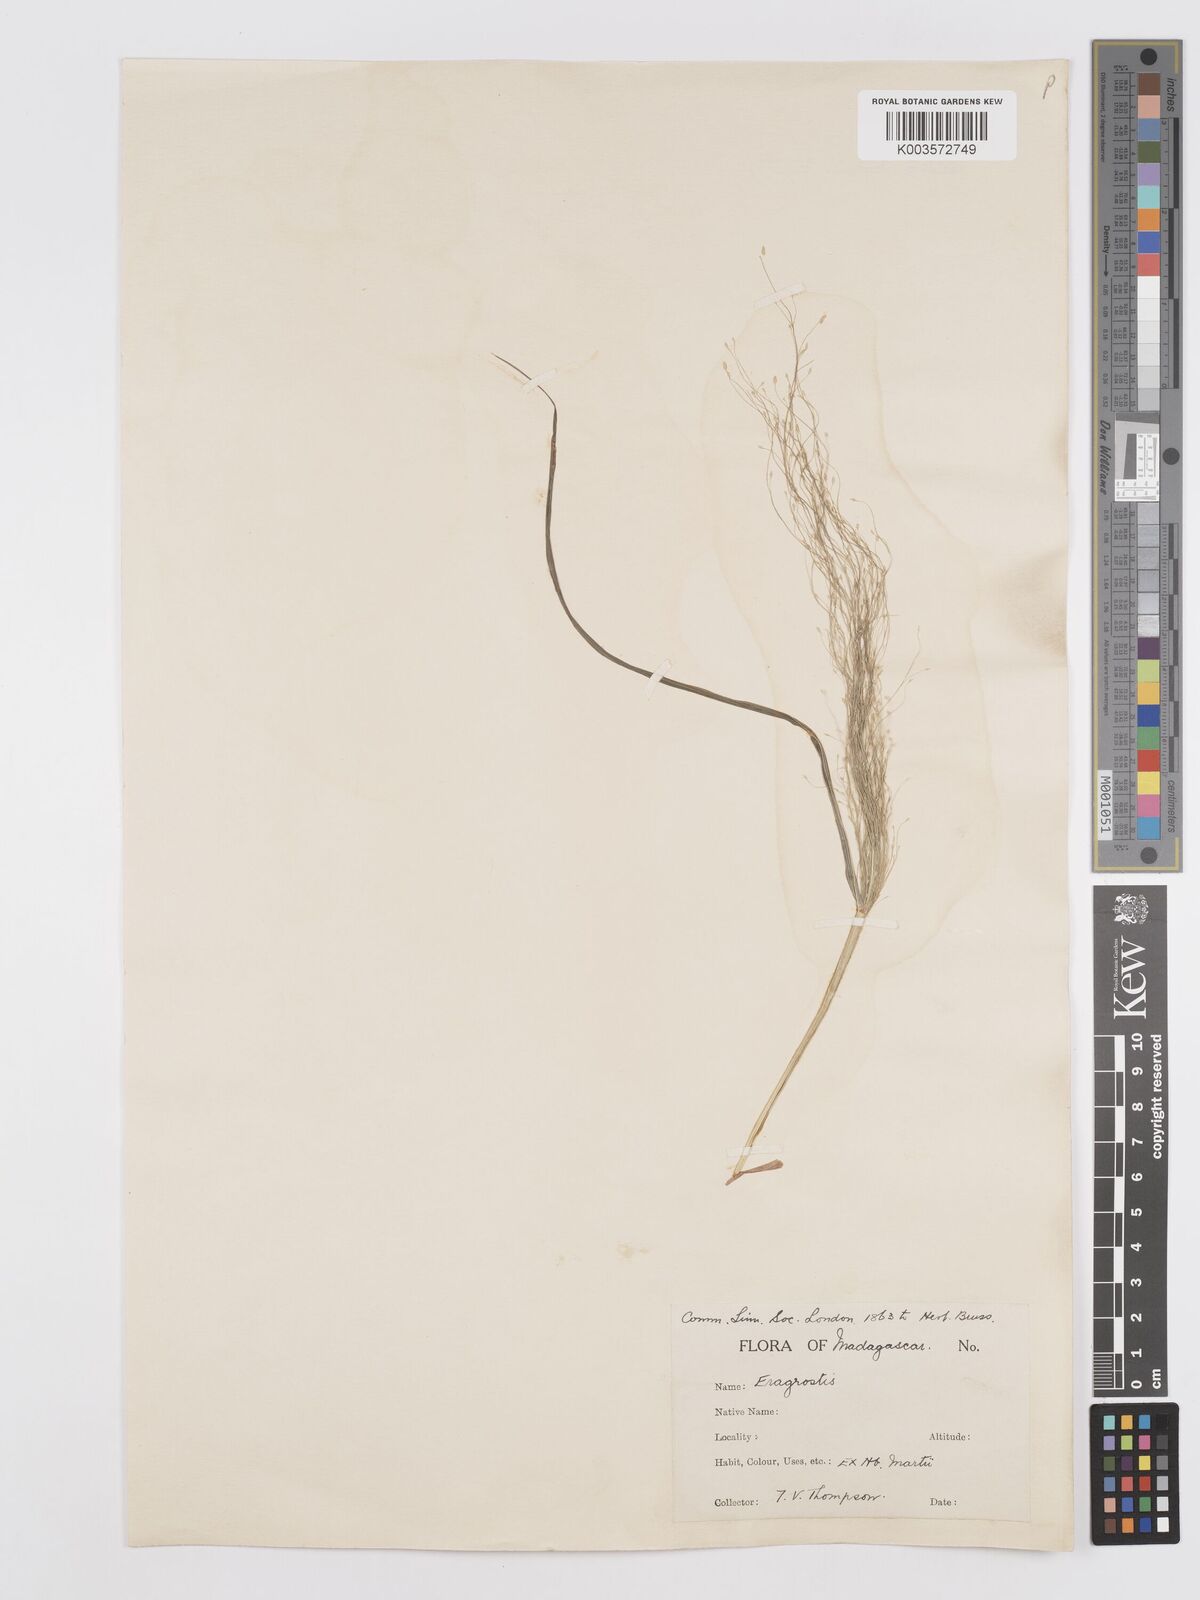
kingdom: Plantae
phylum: Tracheophyta
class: Liliopsida
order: Poales
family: Poaceae
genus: Eragrostis
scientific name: Eragrostis
